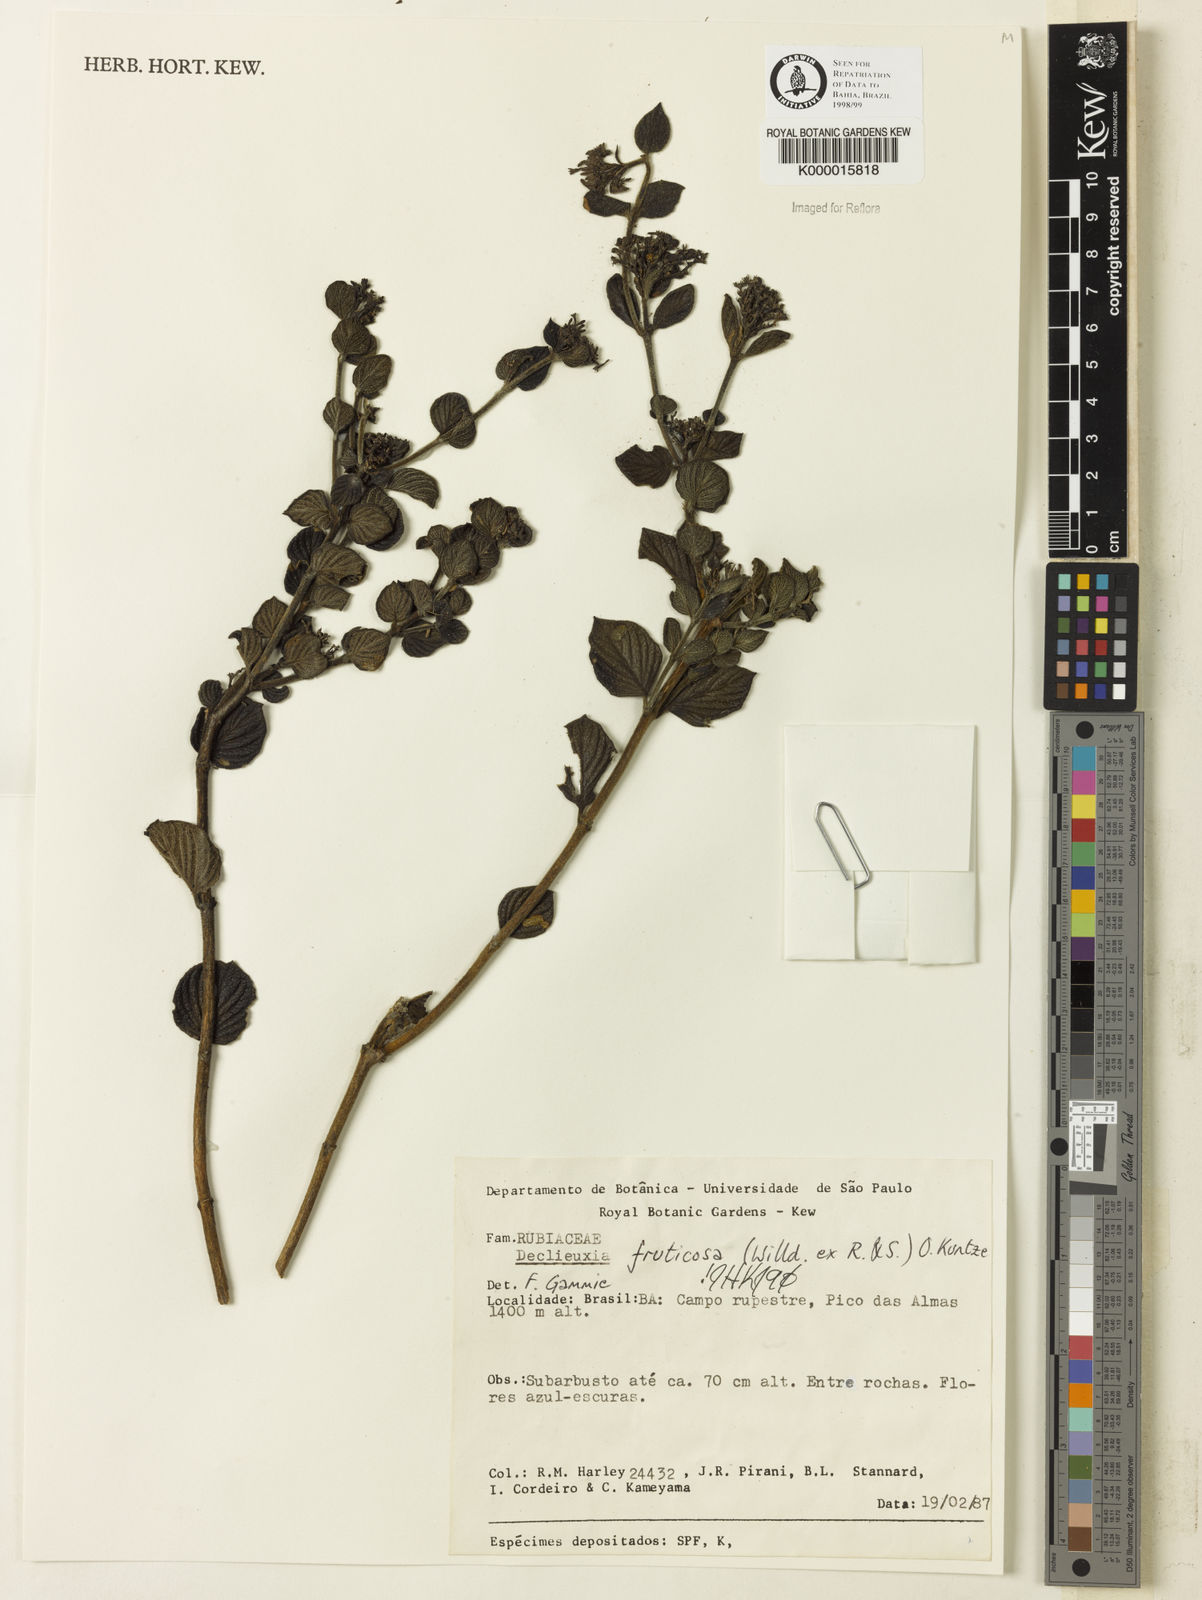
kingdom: Plantae
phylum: Tracheophyta
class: Magnoliopsida
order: Gentianales
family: Rubiaceae
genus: Declieuxia
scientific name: Declieuxia fruticosa
